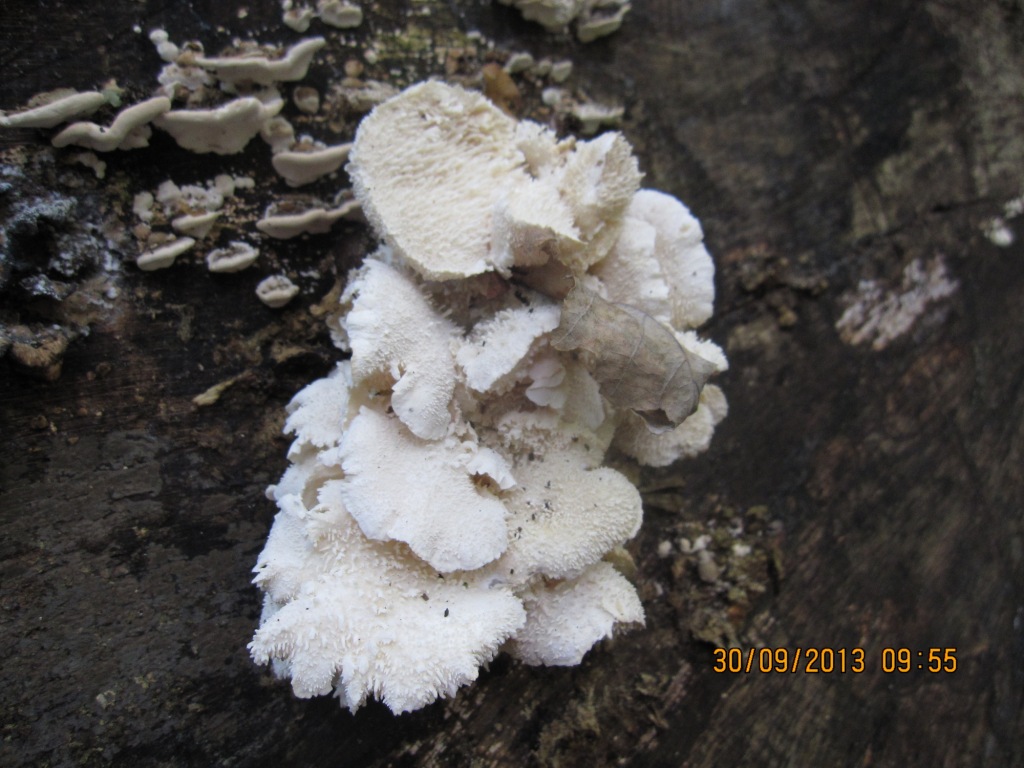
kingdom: Fungi
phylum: Basidiomycota
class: Agaricomycetes
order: Russulales
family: Hericiaceae
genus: Hericium
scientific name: Hericium cirrhatum
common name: børstepigsvamp
